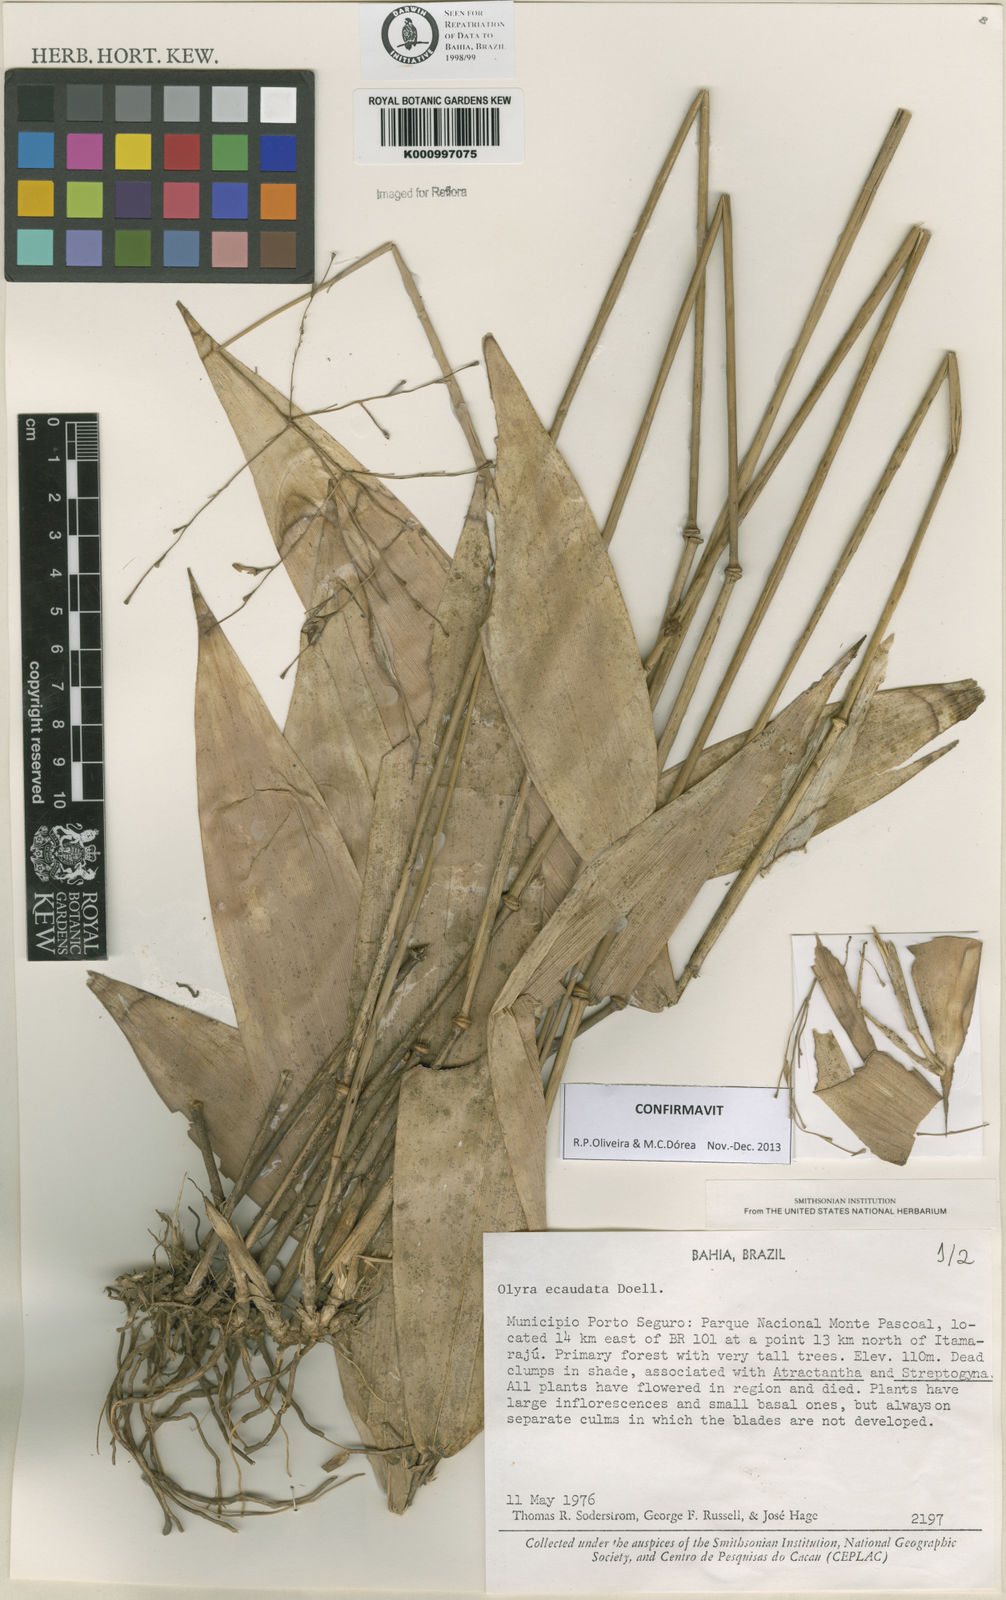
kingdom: Plantae
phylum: Tracheophyta
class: Liliopsida
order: Poales
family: Poaceae
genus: Olyra
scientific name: Olyra
